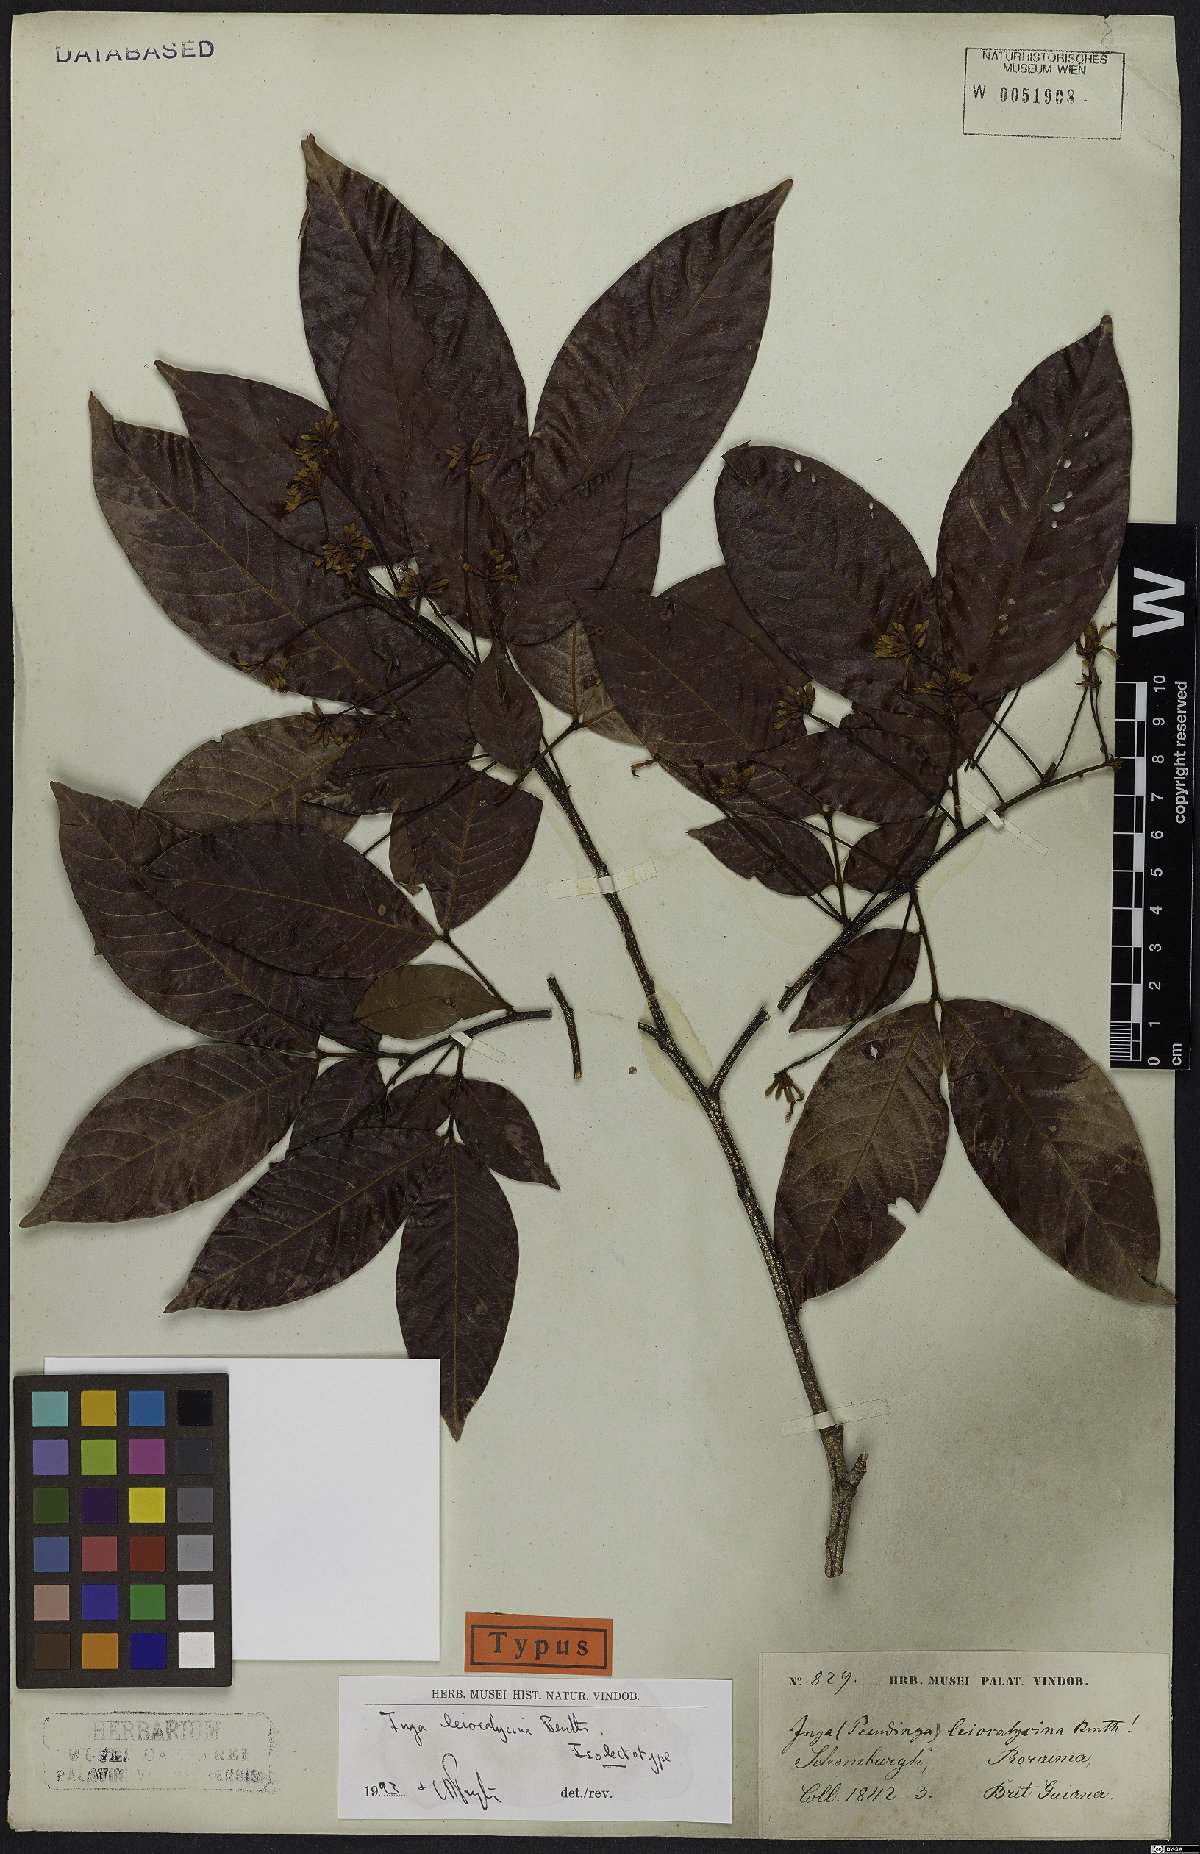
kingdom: Plantae
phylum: Tracheophyta
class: Magnoliopsida
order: Fabales
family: Fabaceae
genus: Inga
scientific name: Inga laevigata
